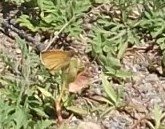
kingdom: Animalia
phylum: Arthropoda
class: Insecta
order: Lepidoptera
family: Nymphalidae
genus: Lethe
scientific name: Lethe eurydice
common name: Appalachian Eyed Brown
